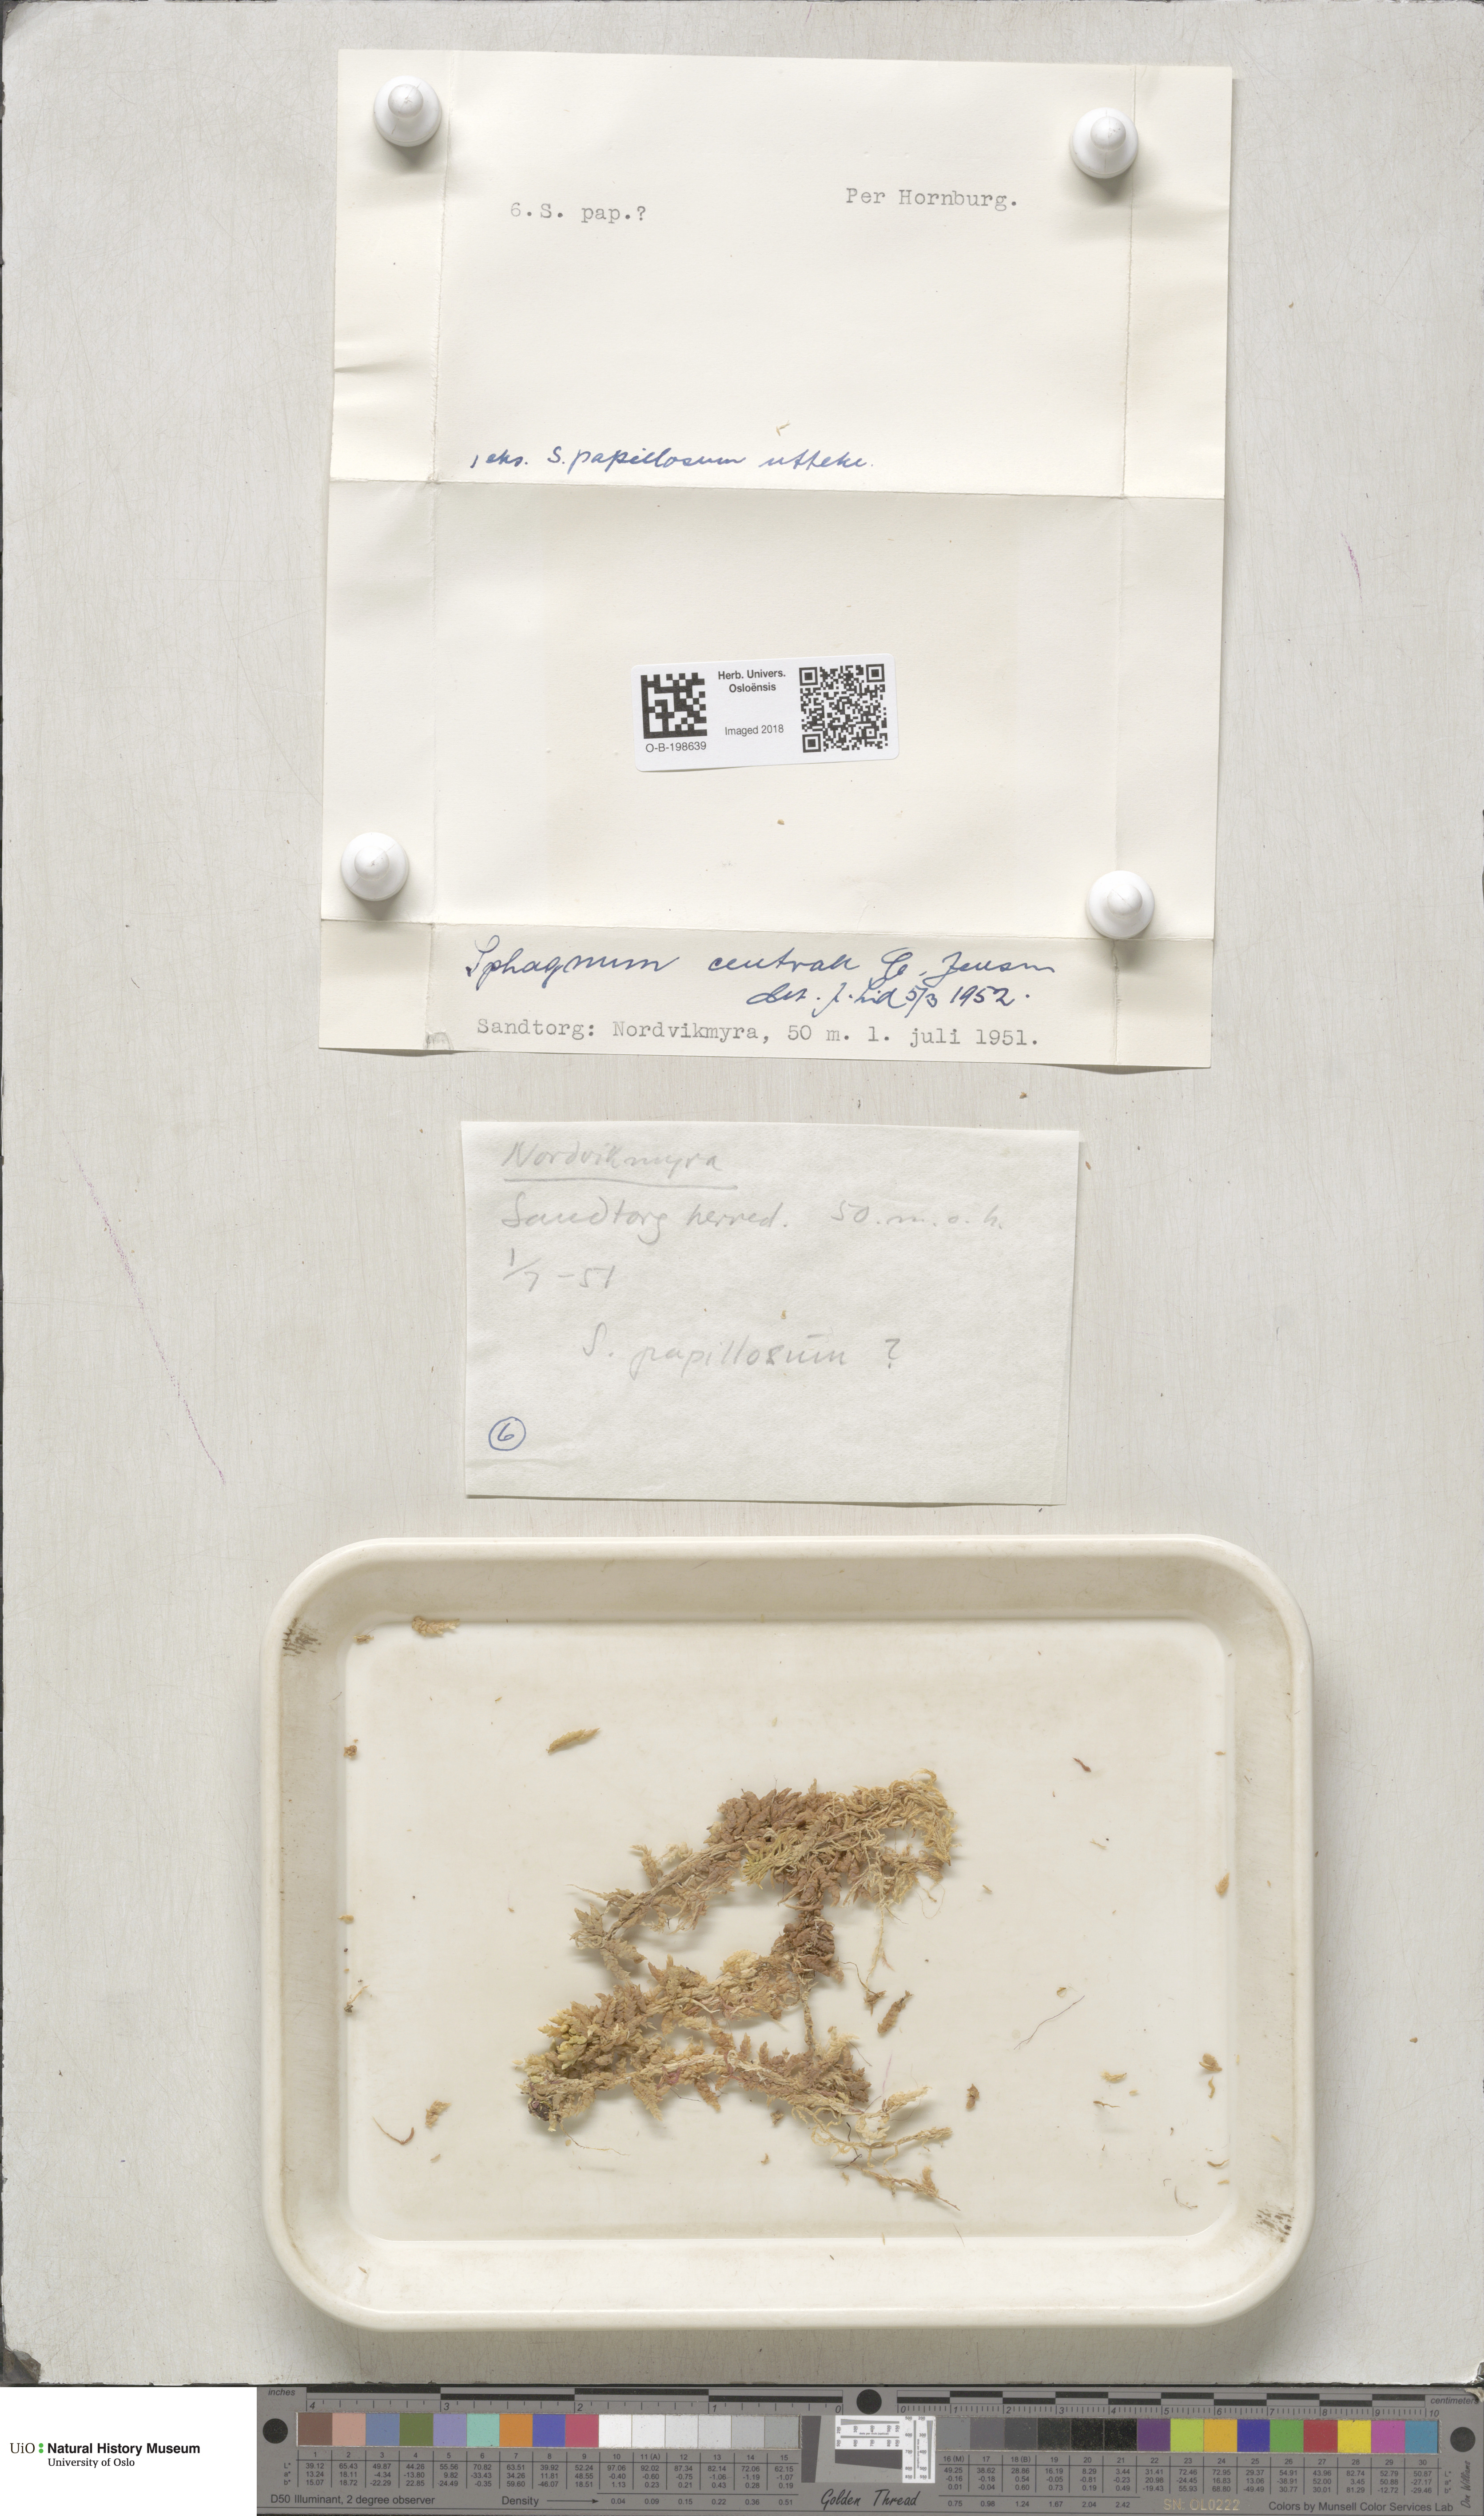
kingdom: Plantae
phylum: Bryophyta
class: Sphagnopsida
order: Sphagnales
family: Sphagnaceae
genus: Sphagnum
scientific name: Sphagnum centrale
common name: Central peat moss
